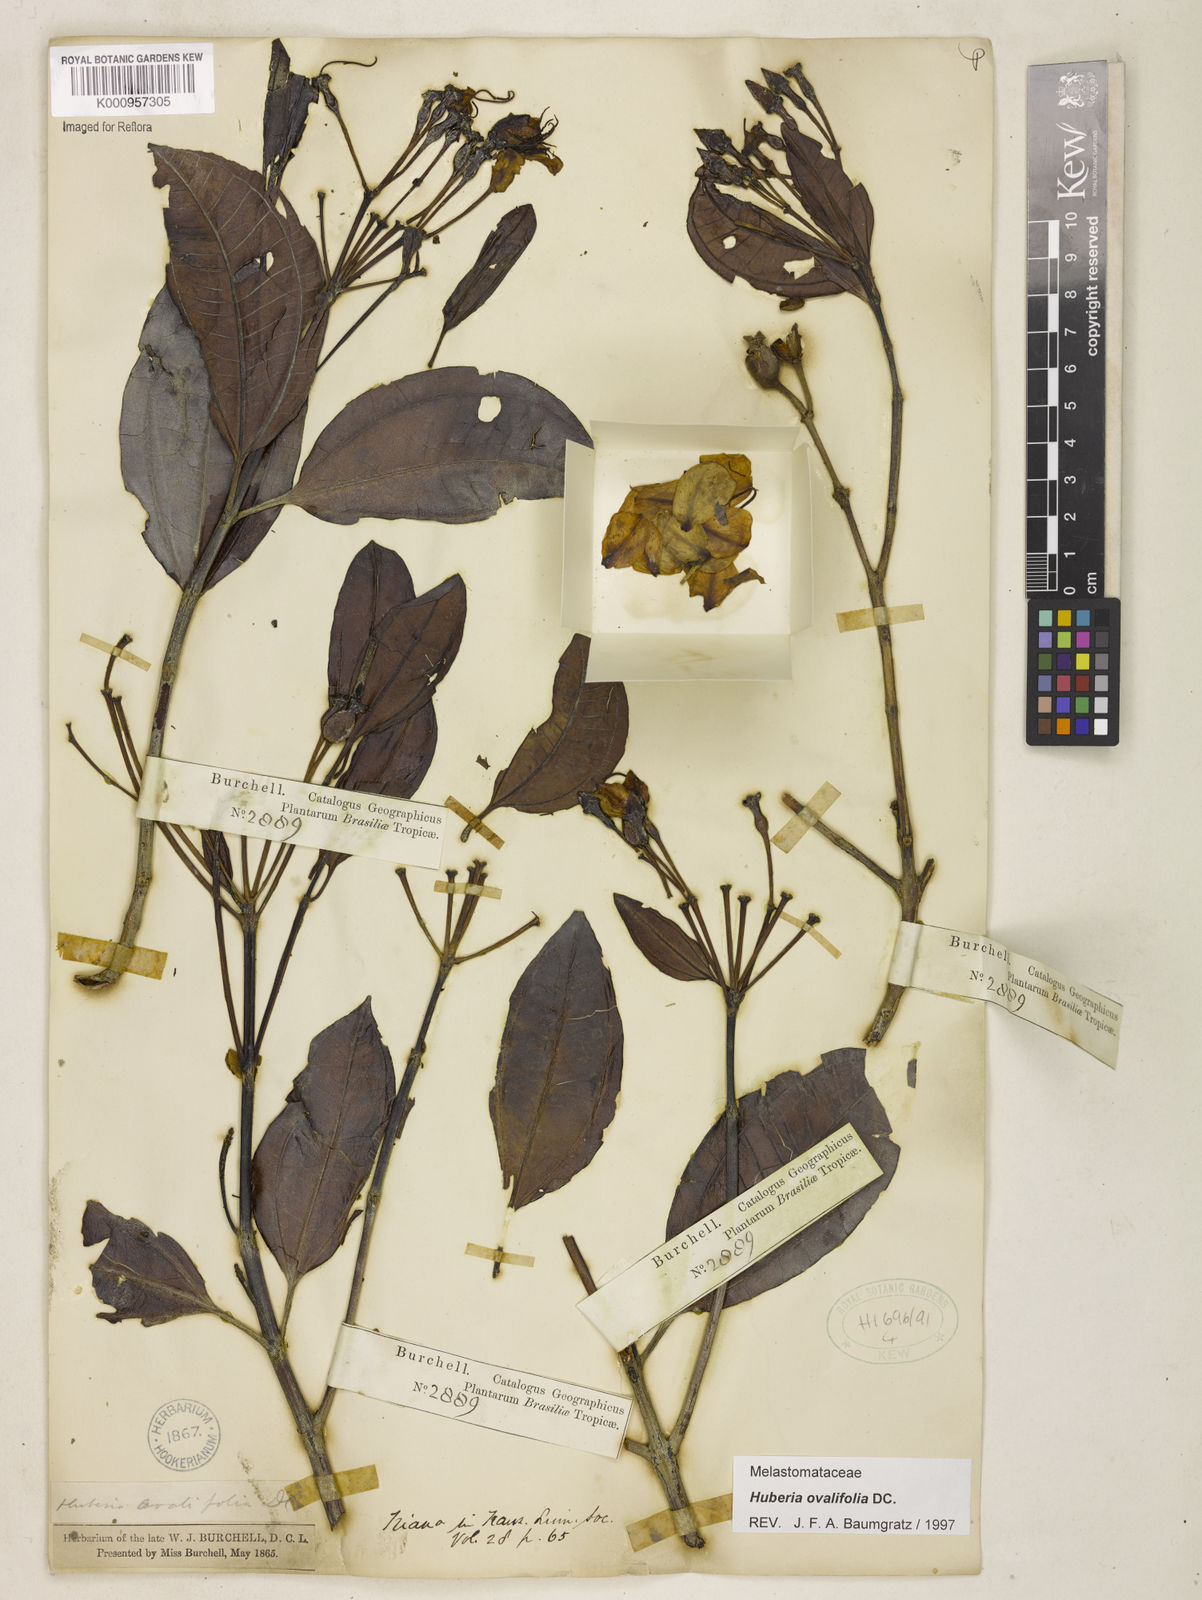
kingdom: Plantae
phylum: Tracheophyta
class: Magnoliopsida
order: Myrtales
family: Melastomataceae
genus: Huberia
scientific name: Huberia ovalifolia
